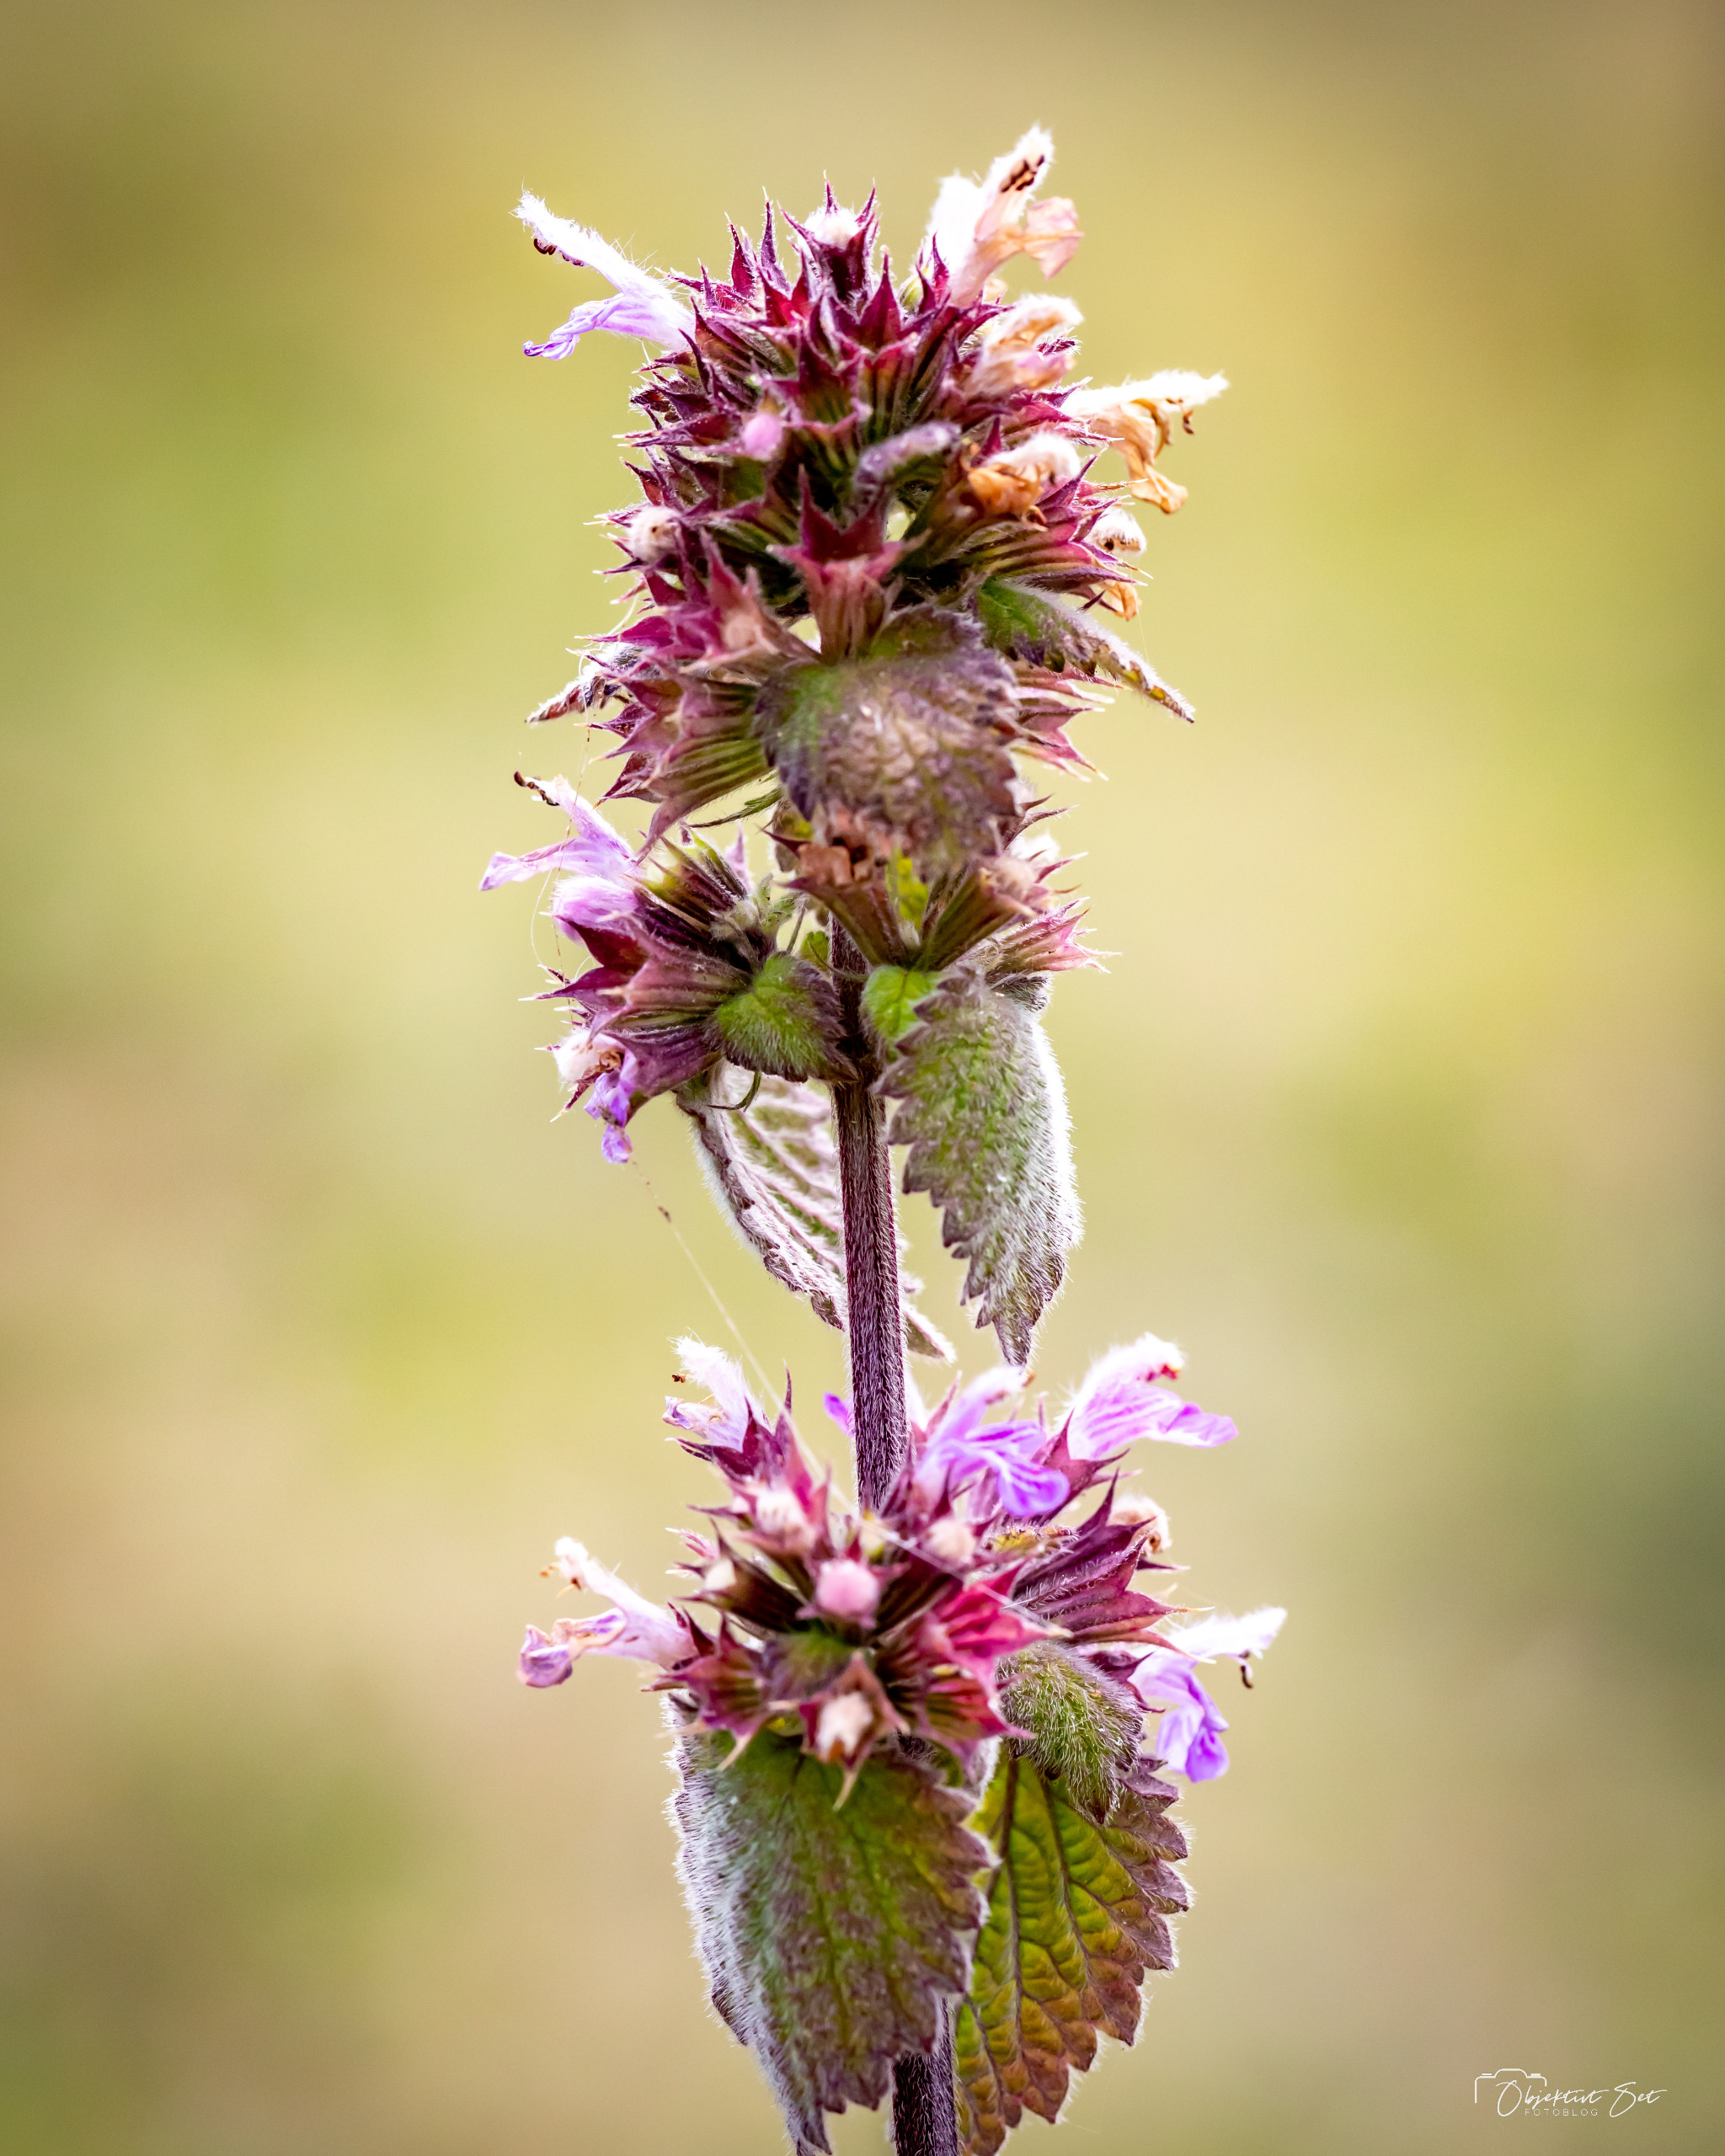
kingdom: Plantae
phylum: Tracheophyta
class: Magnoliopsida
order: Lamiales
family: Lamiaceae
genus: Ballota
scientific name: Ballota nigra
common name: Tandbæger
